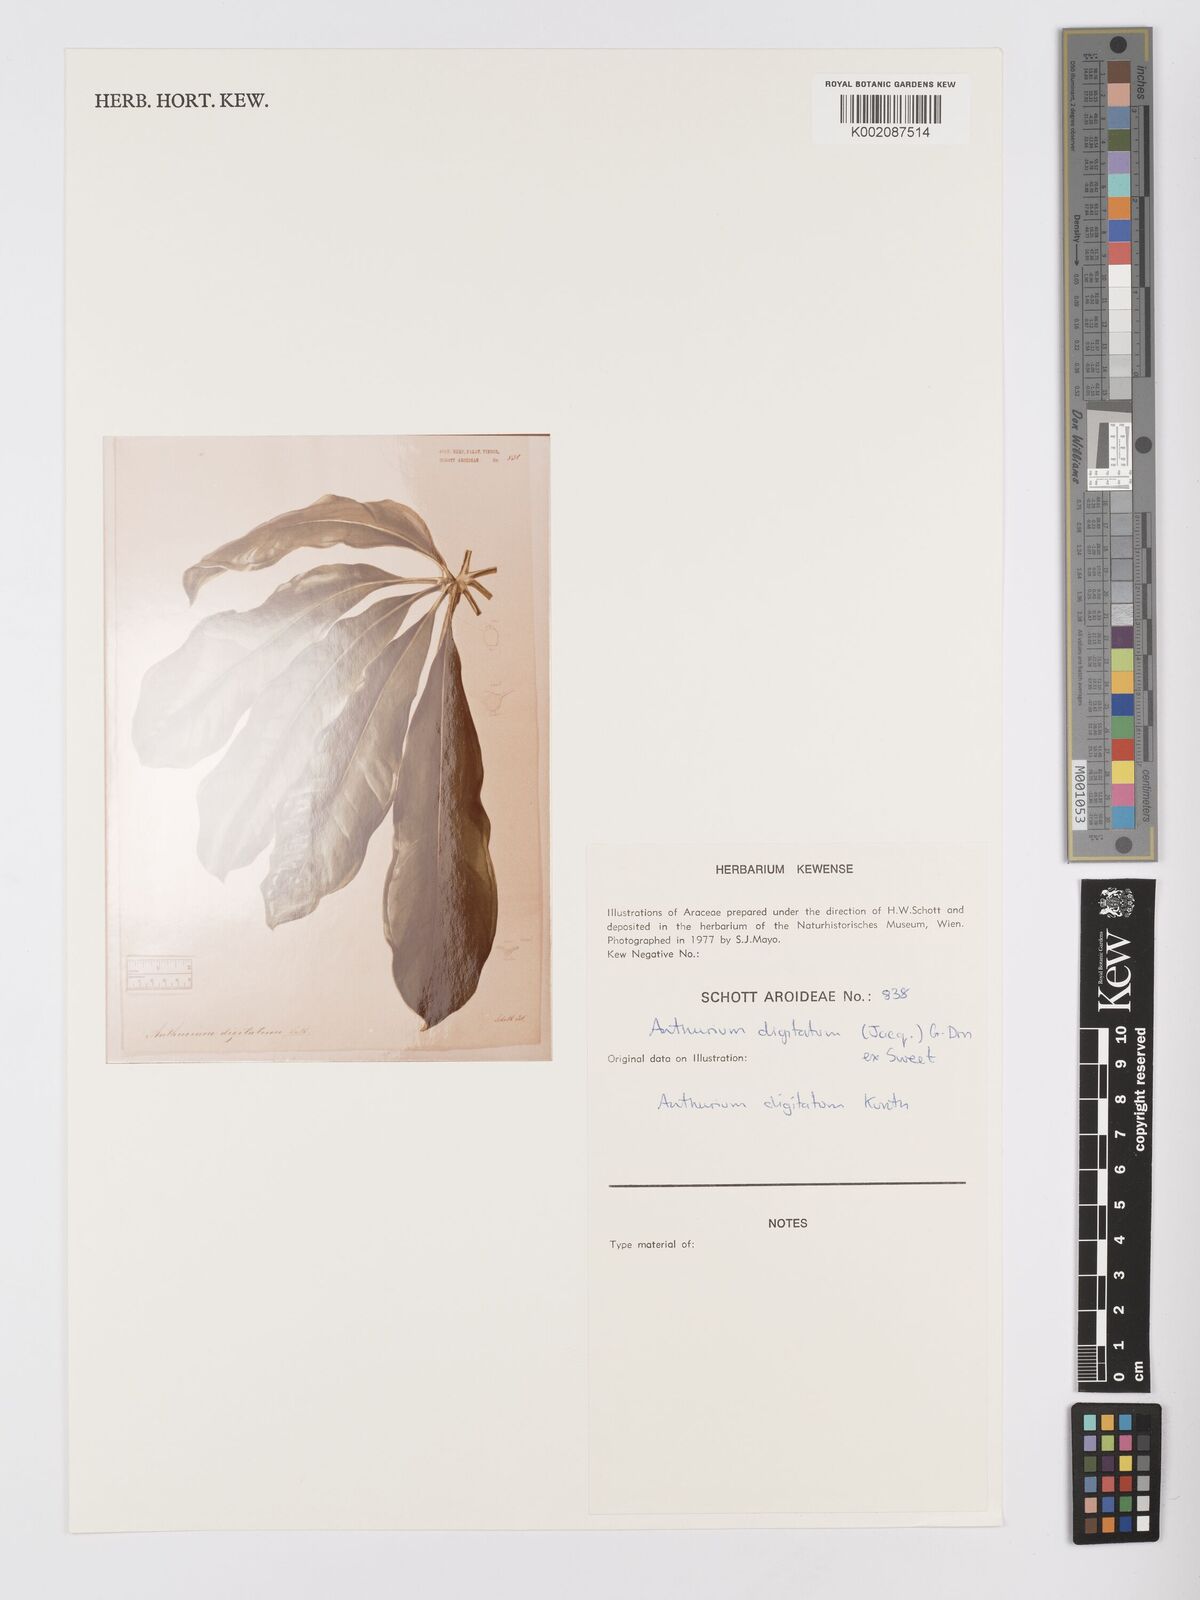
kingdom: Plantae
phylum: Tracheophyta
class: Liliopsida
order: Alismatales
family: Araceae
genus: Anthurium
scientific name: Anthurium digitatum
